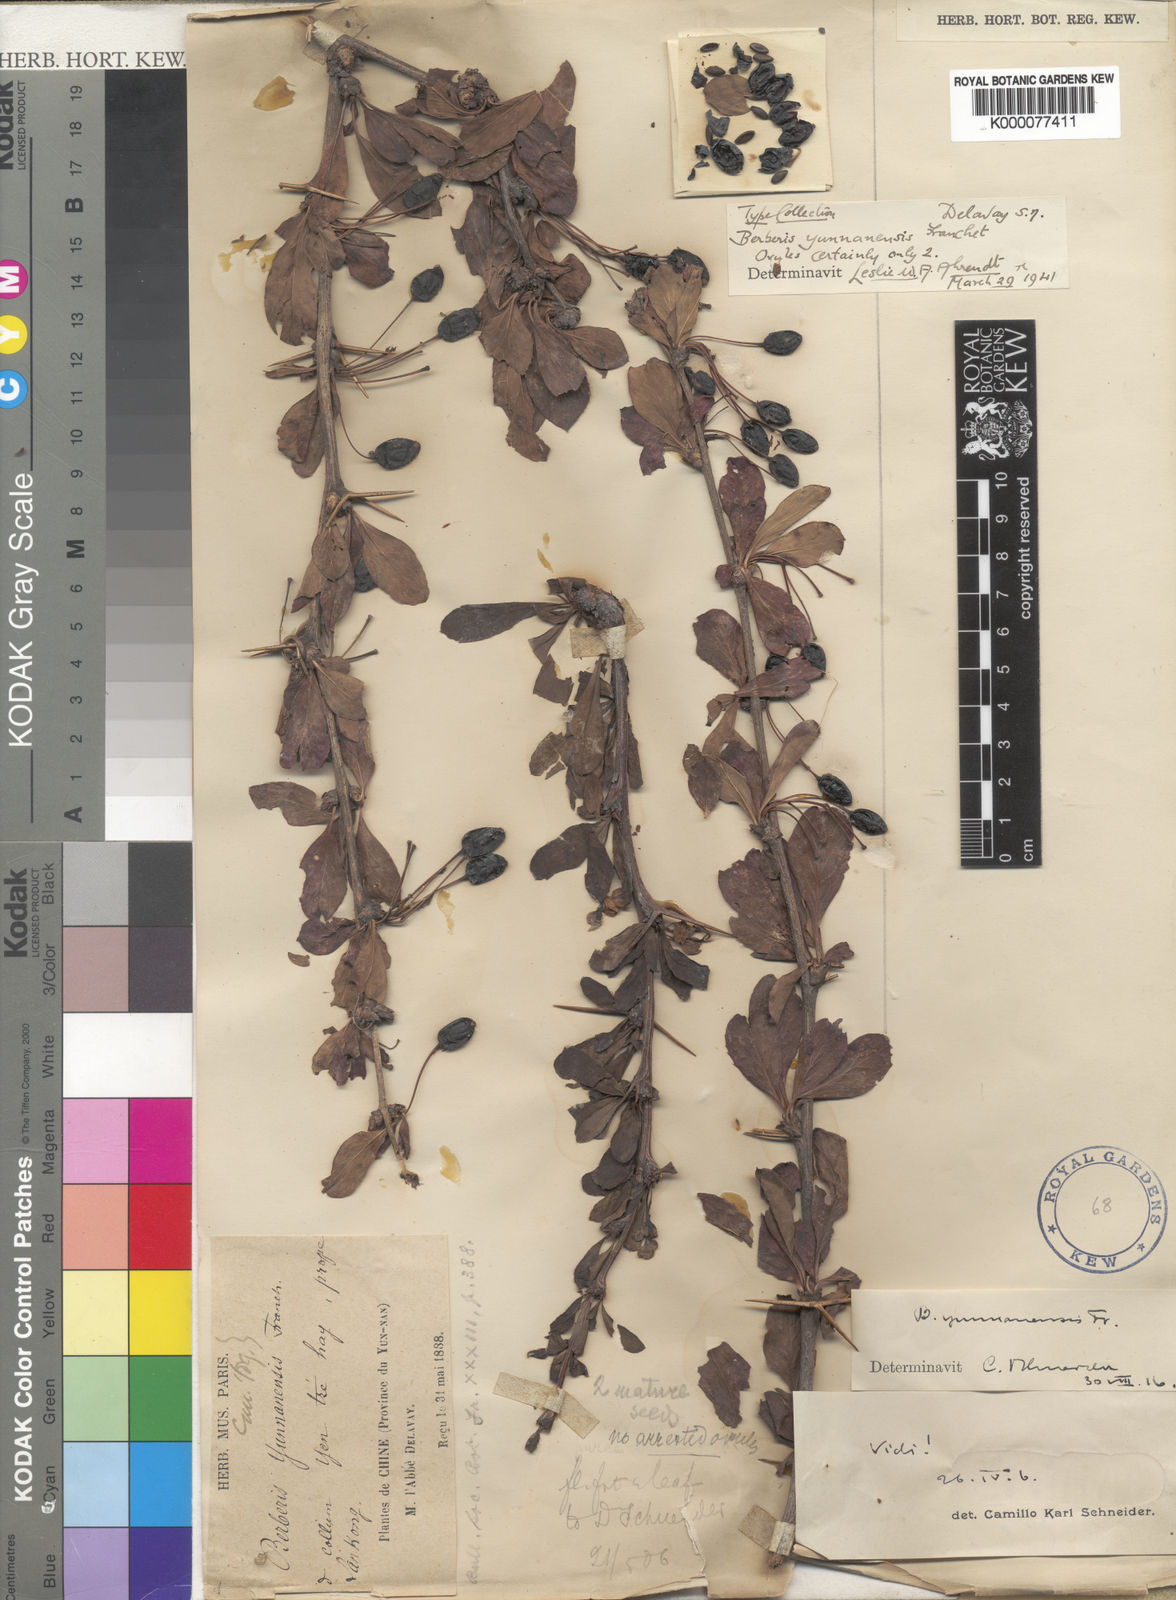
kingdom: Plantae
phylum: Tracheophyta
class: Magnoliopsida
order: Ranunculales
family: Berberidaceae
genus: Berberis
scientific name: Berberis yunnanensis
